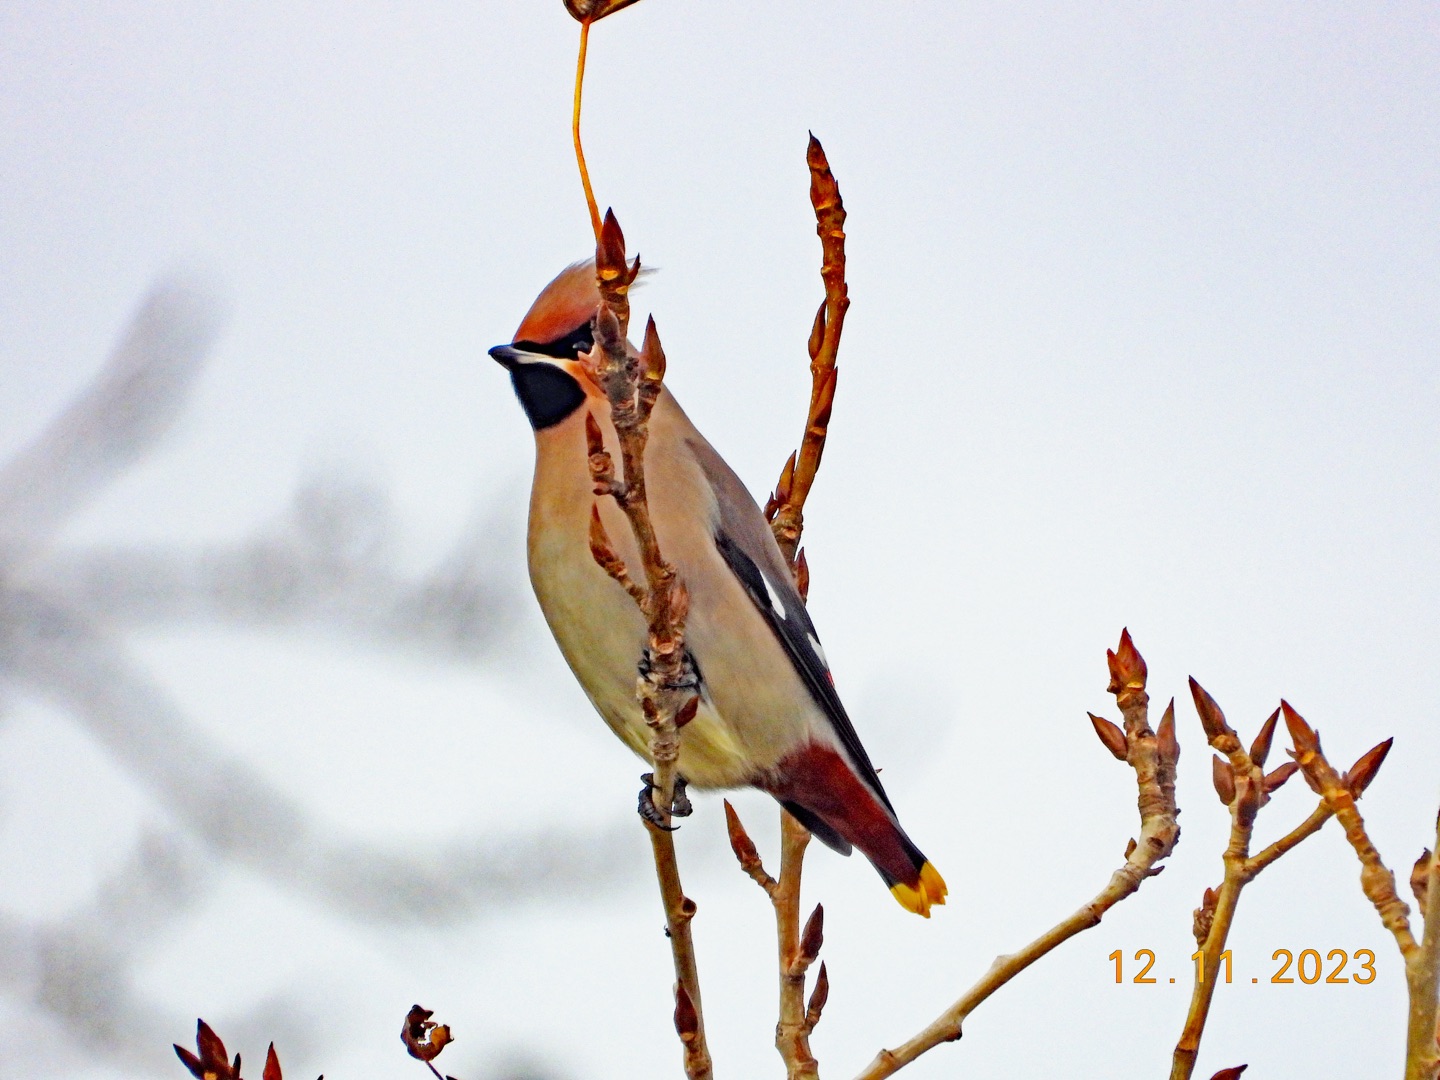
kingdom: Animalia
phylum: Chordata
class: Aves
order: Passeriformes
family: Bombycillidae
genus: Bombycilla
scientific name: Bombycilla garrulus
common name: Silkehale
